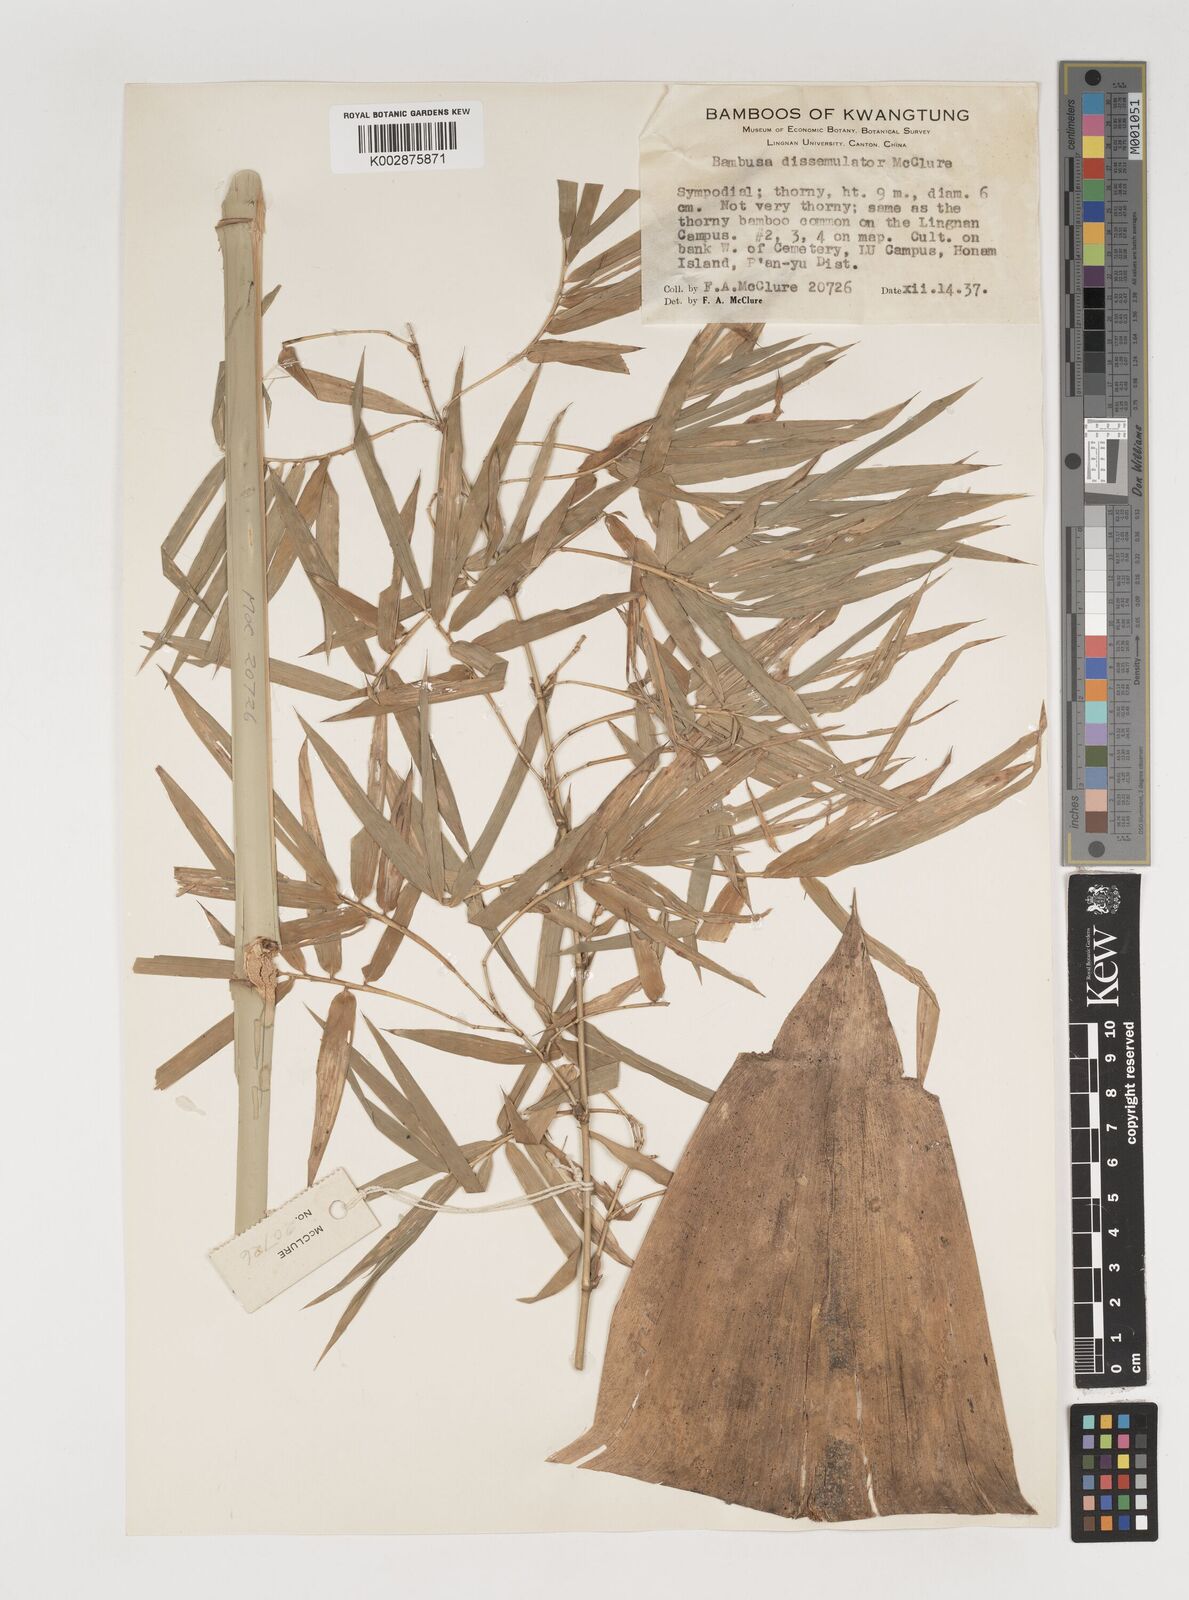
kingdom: Plantae
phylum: Tracheophyta
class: Liliopsida
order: Poales
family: Poaceae
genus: Bambusa
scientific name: Bambusa dissimulator
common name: Muddy bamboo
